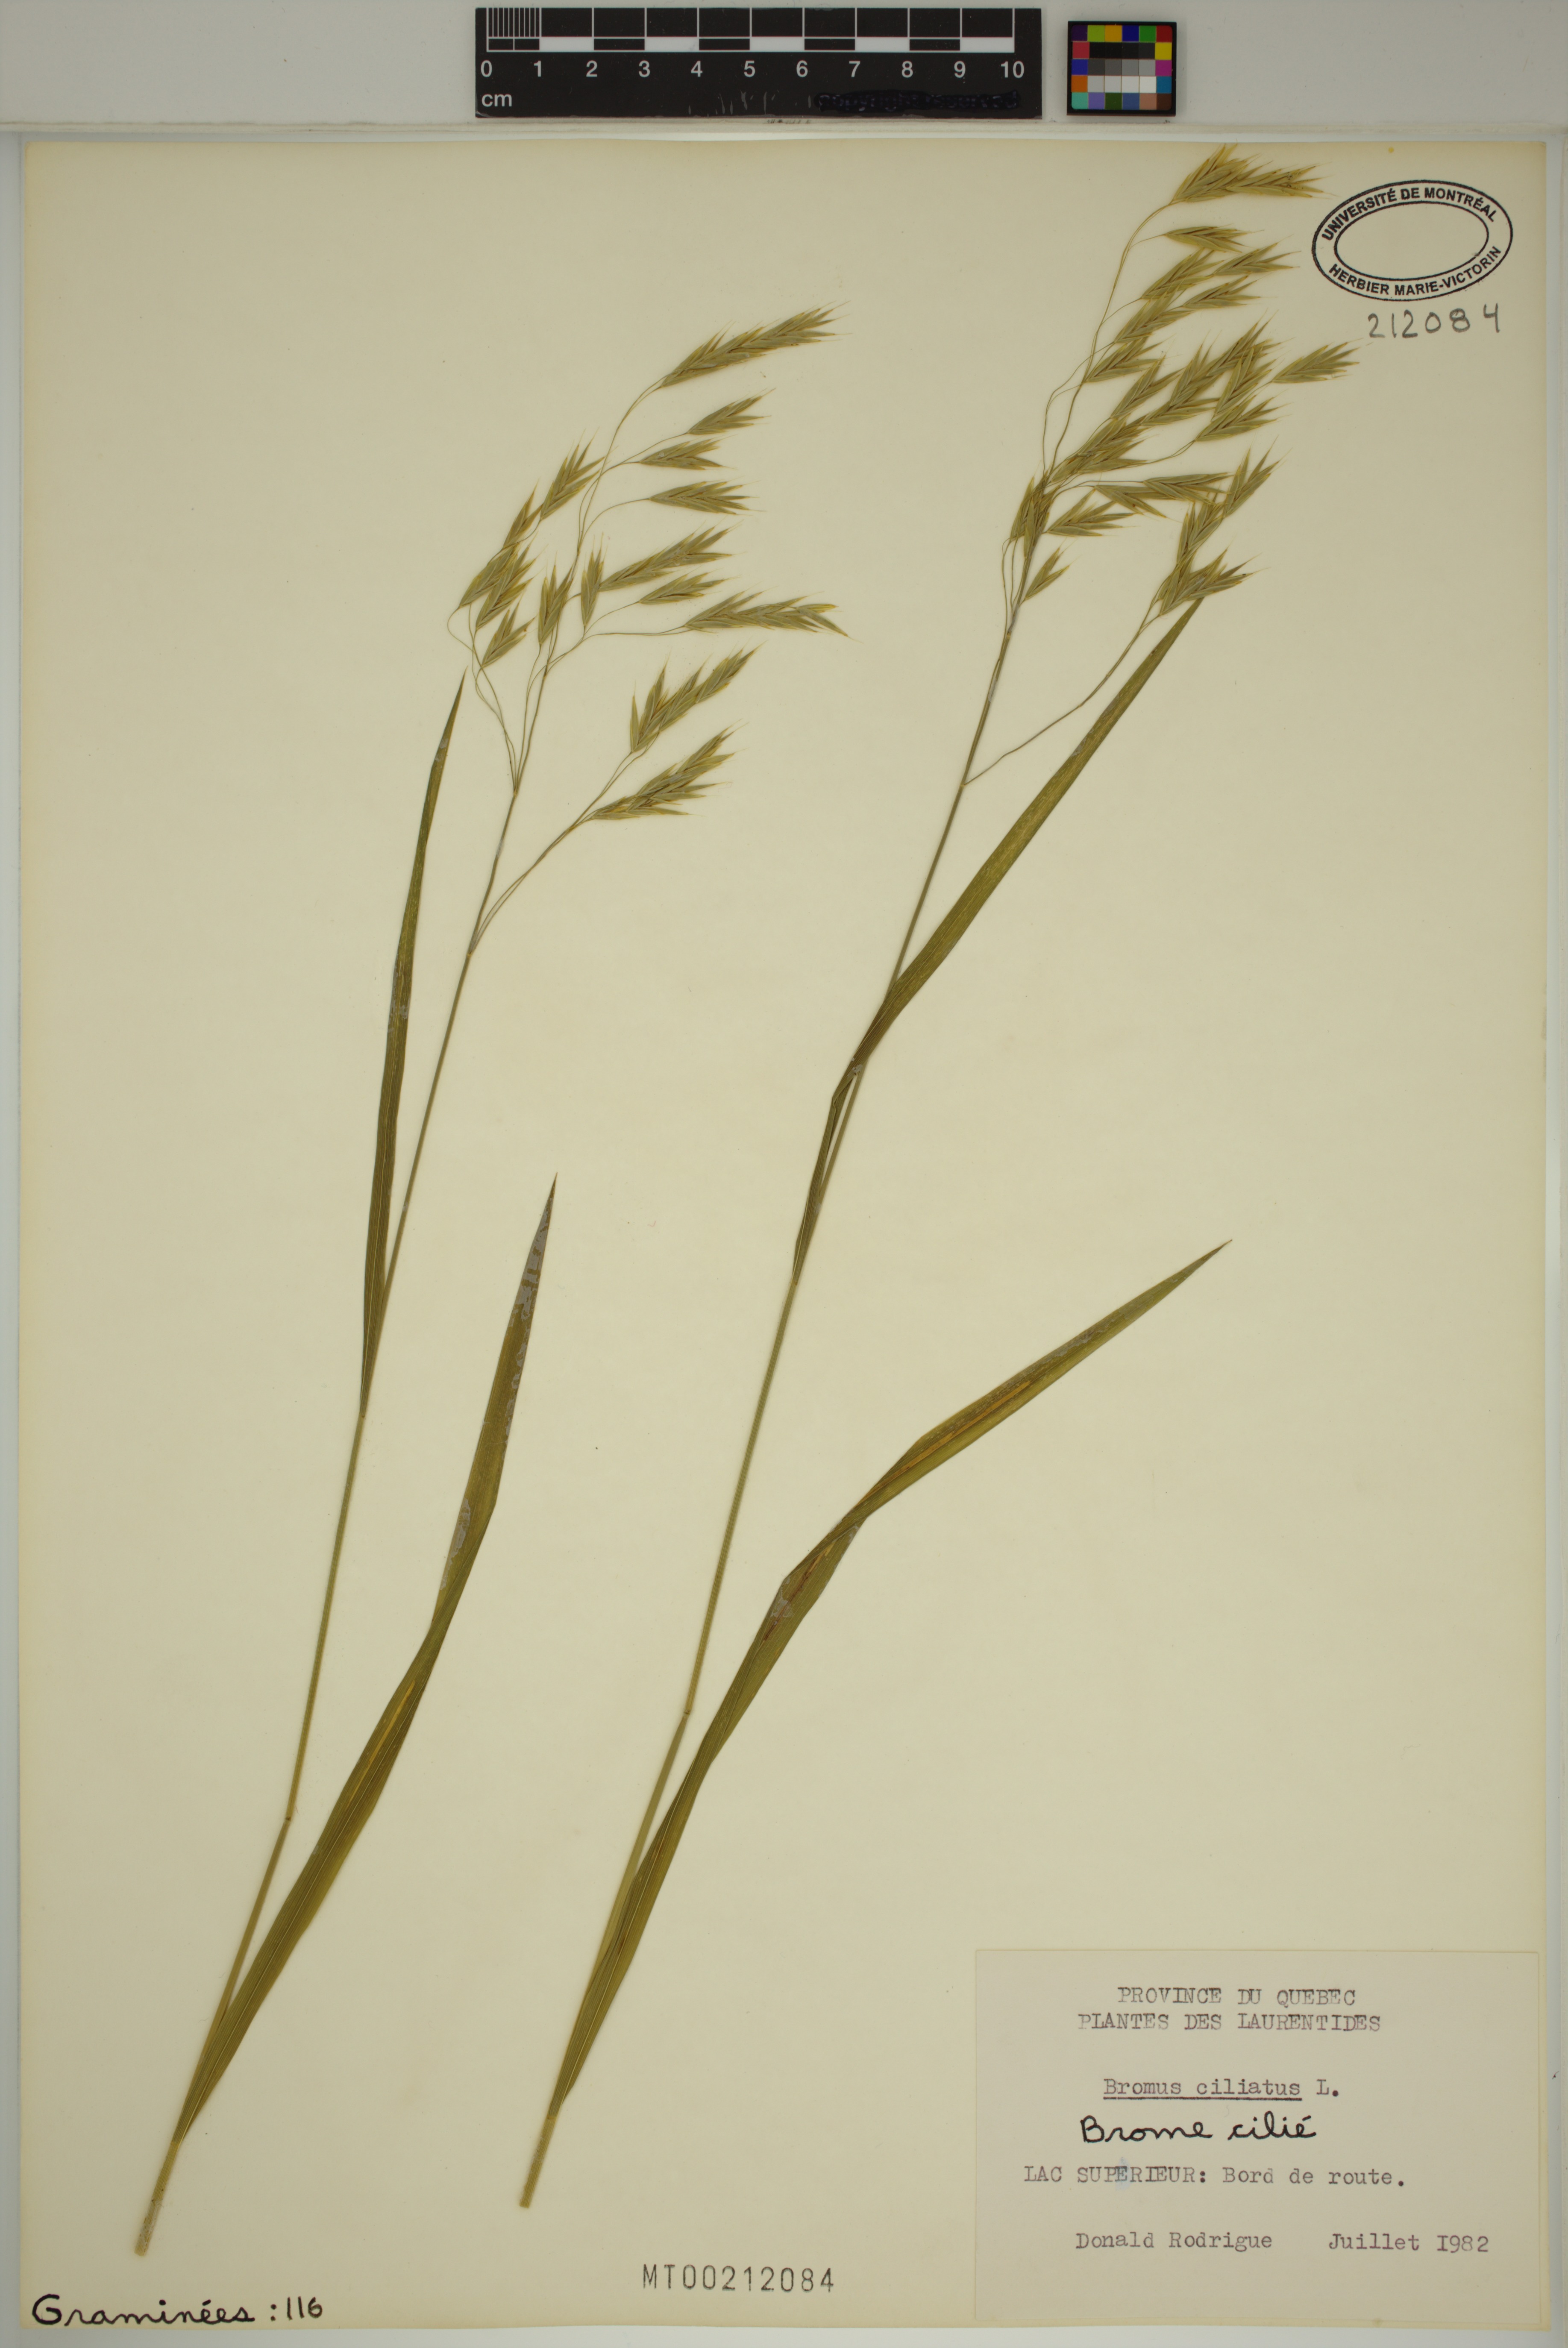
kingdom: Plantae
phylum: Tracheophyta
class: Liliopsida
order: Poales
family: Poaceae
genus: Bromus
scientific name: Bromus ciliatus
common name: Fringe brome
